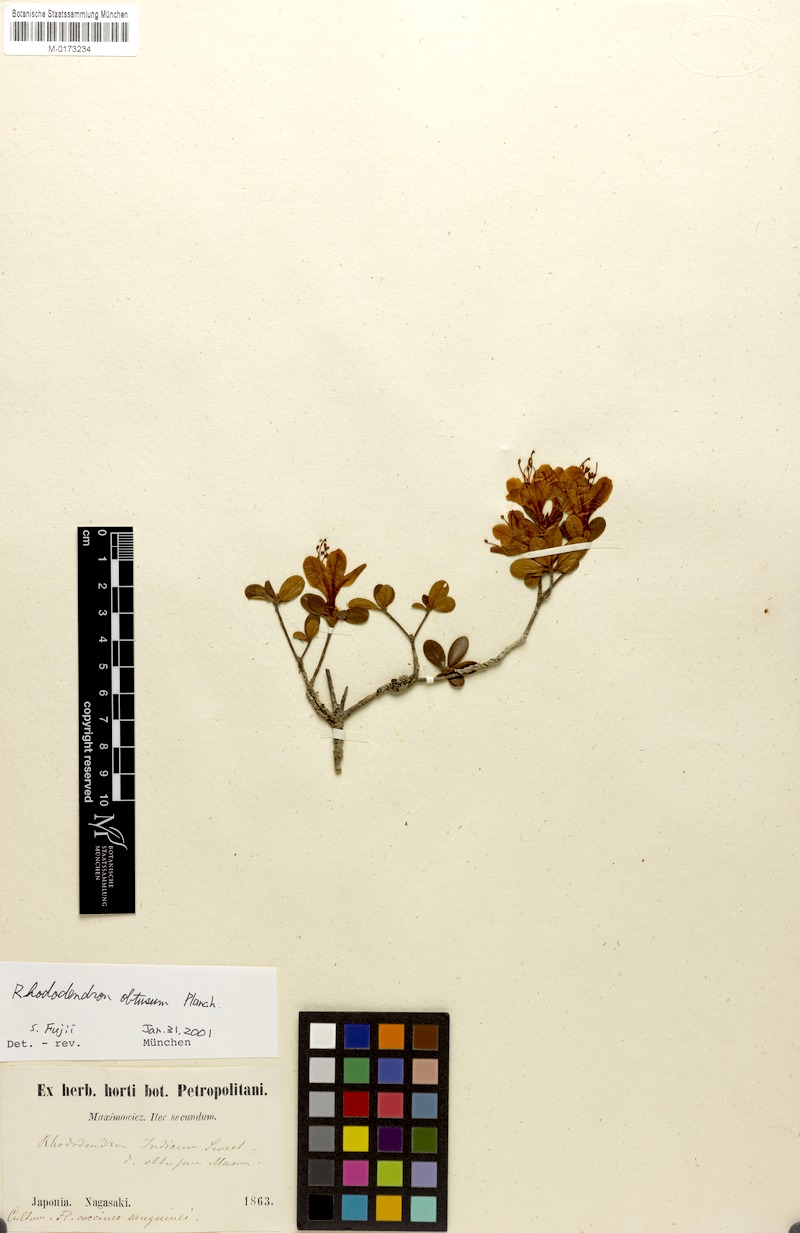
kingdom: Plantae
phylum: Tracheophyta
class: Magnoliopsida
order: Ericales
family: Ericaceae
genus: Rhododendron
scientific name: Rhododendron indicum
